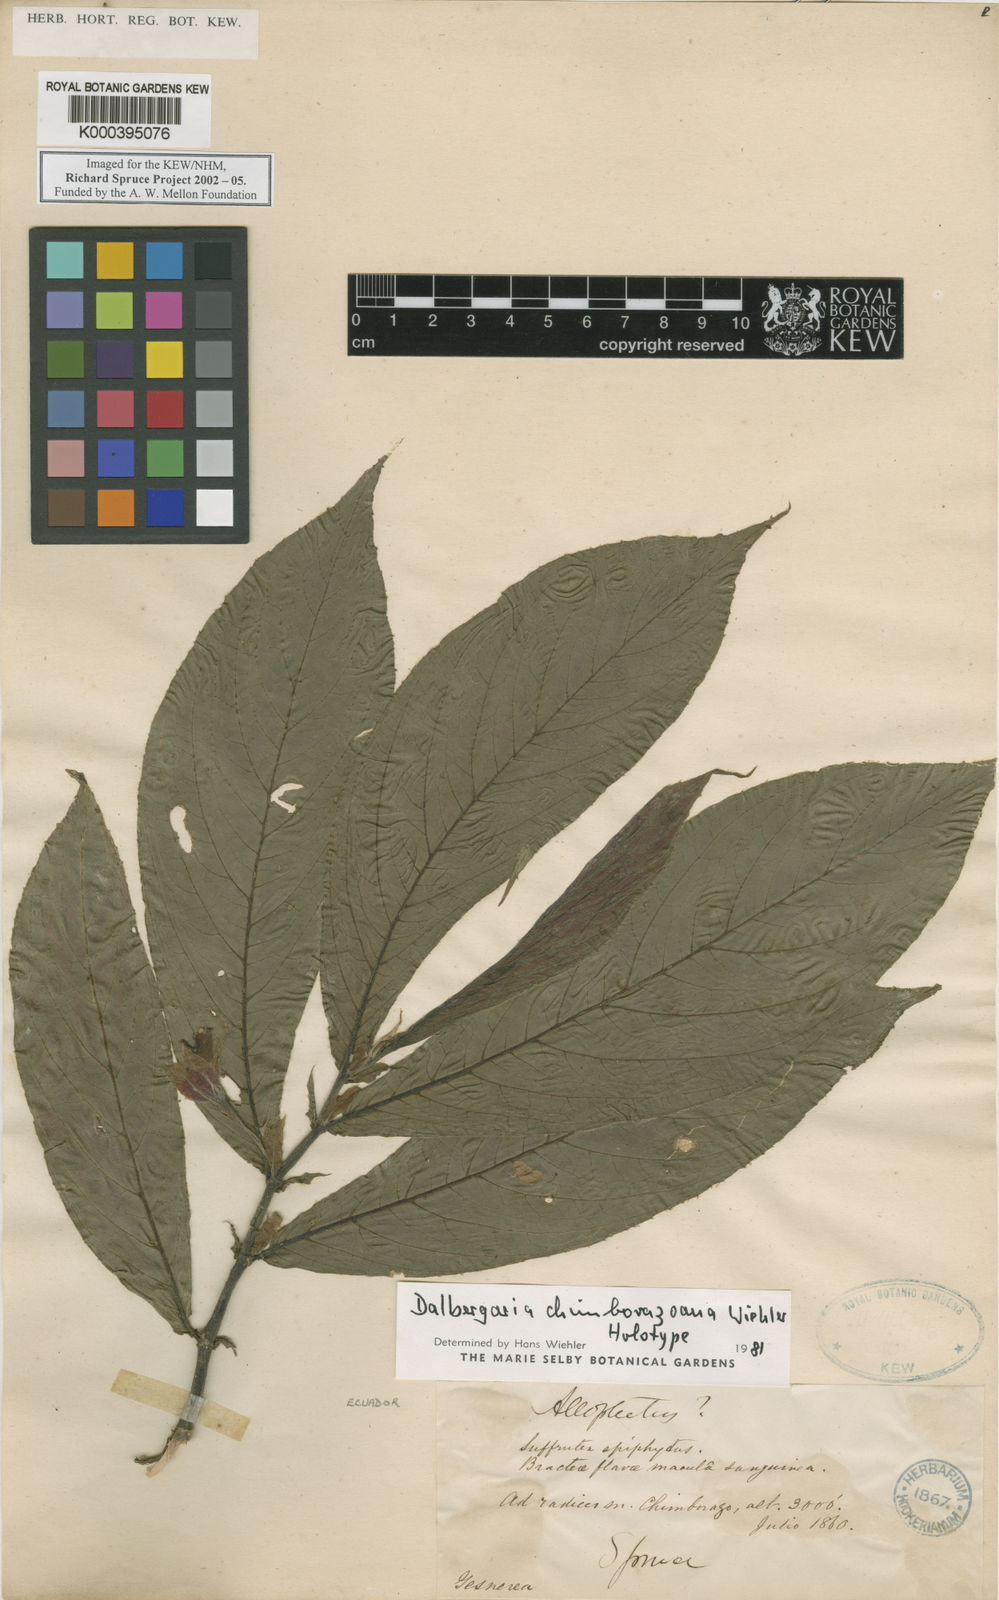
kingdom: Plantae
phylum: Tracheophyta
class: Magnoliopsida
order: Lamiales
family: Gesneriaceae
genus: Columnea
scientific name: Columnea
